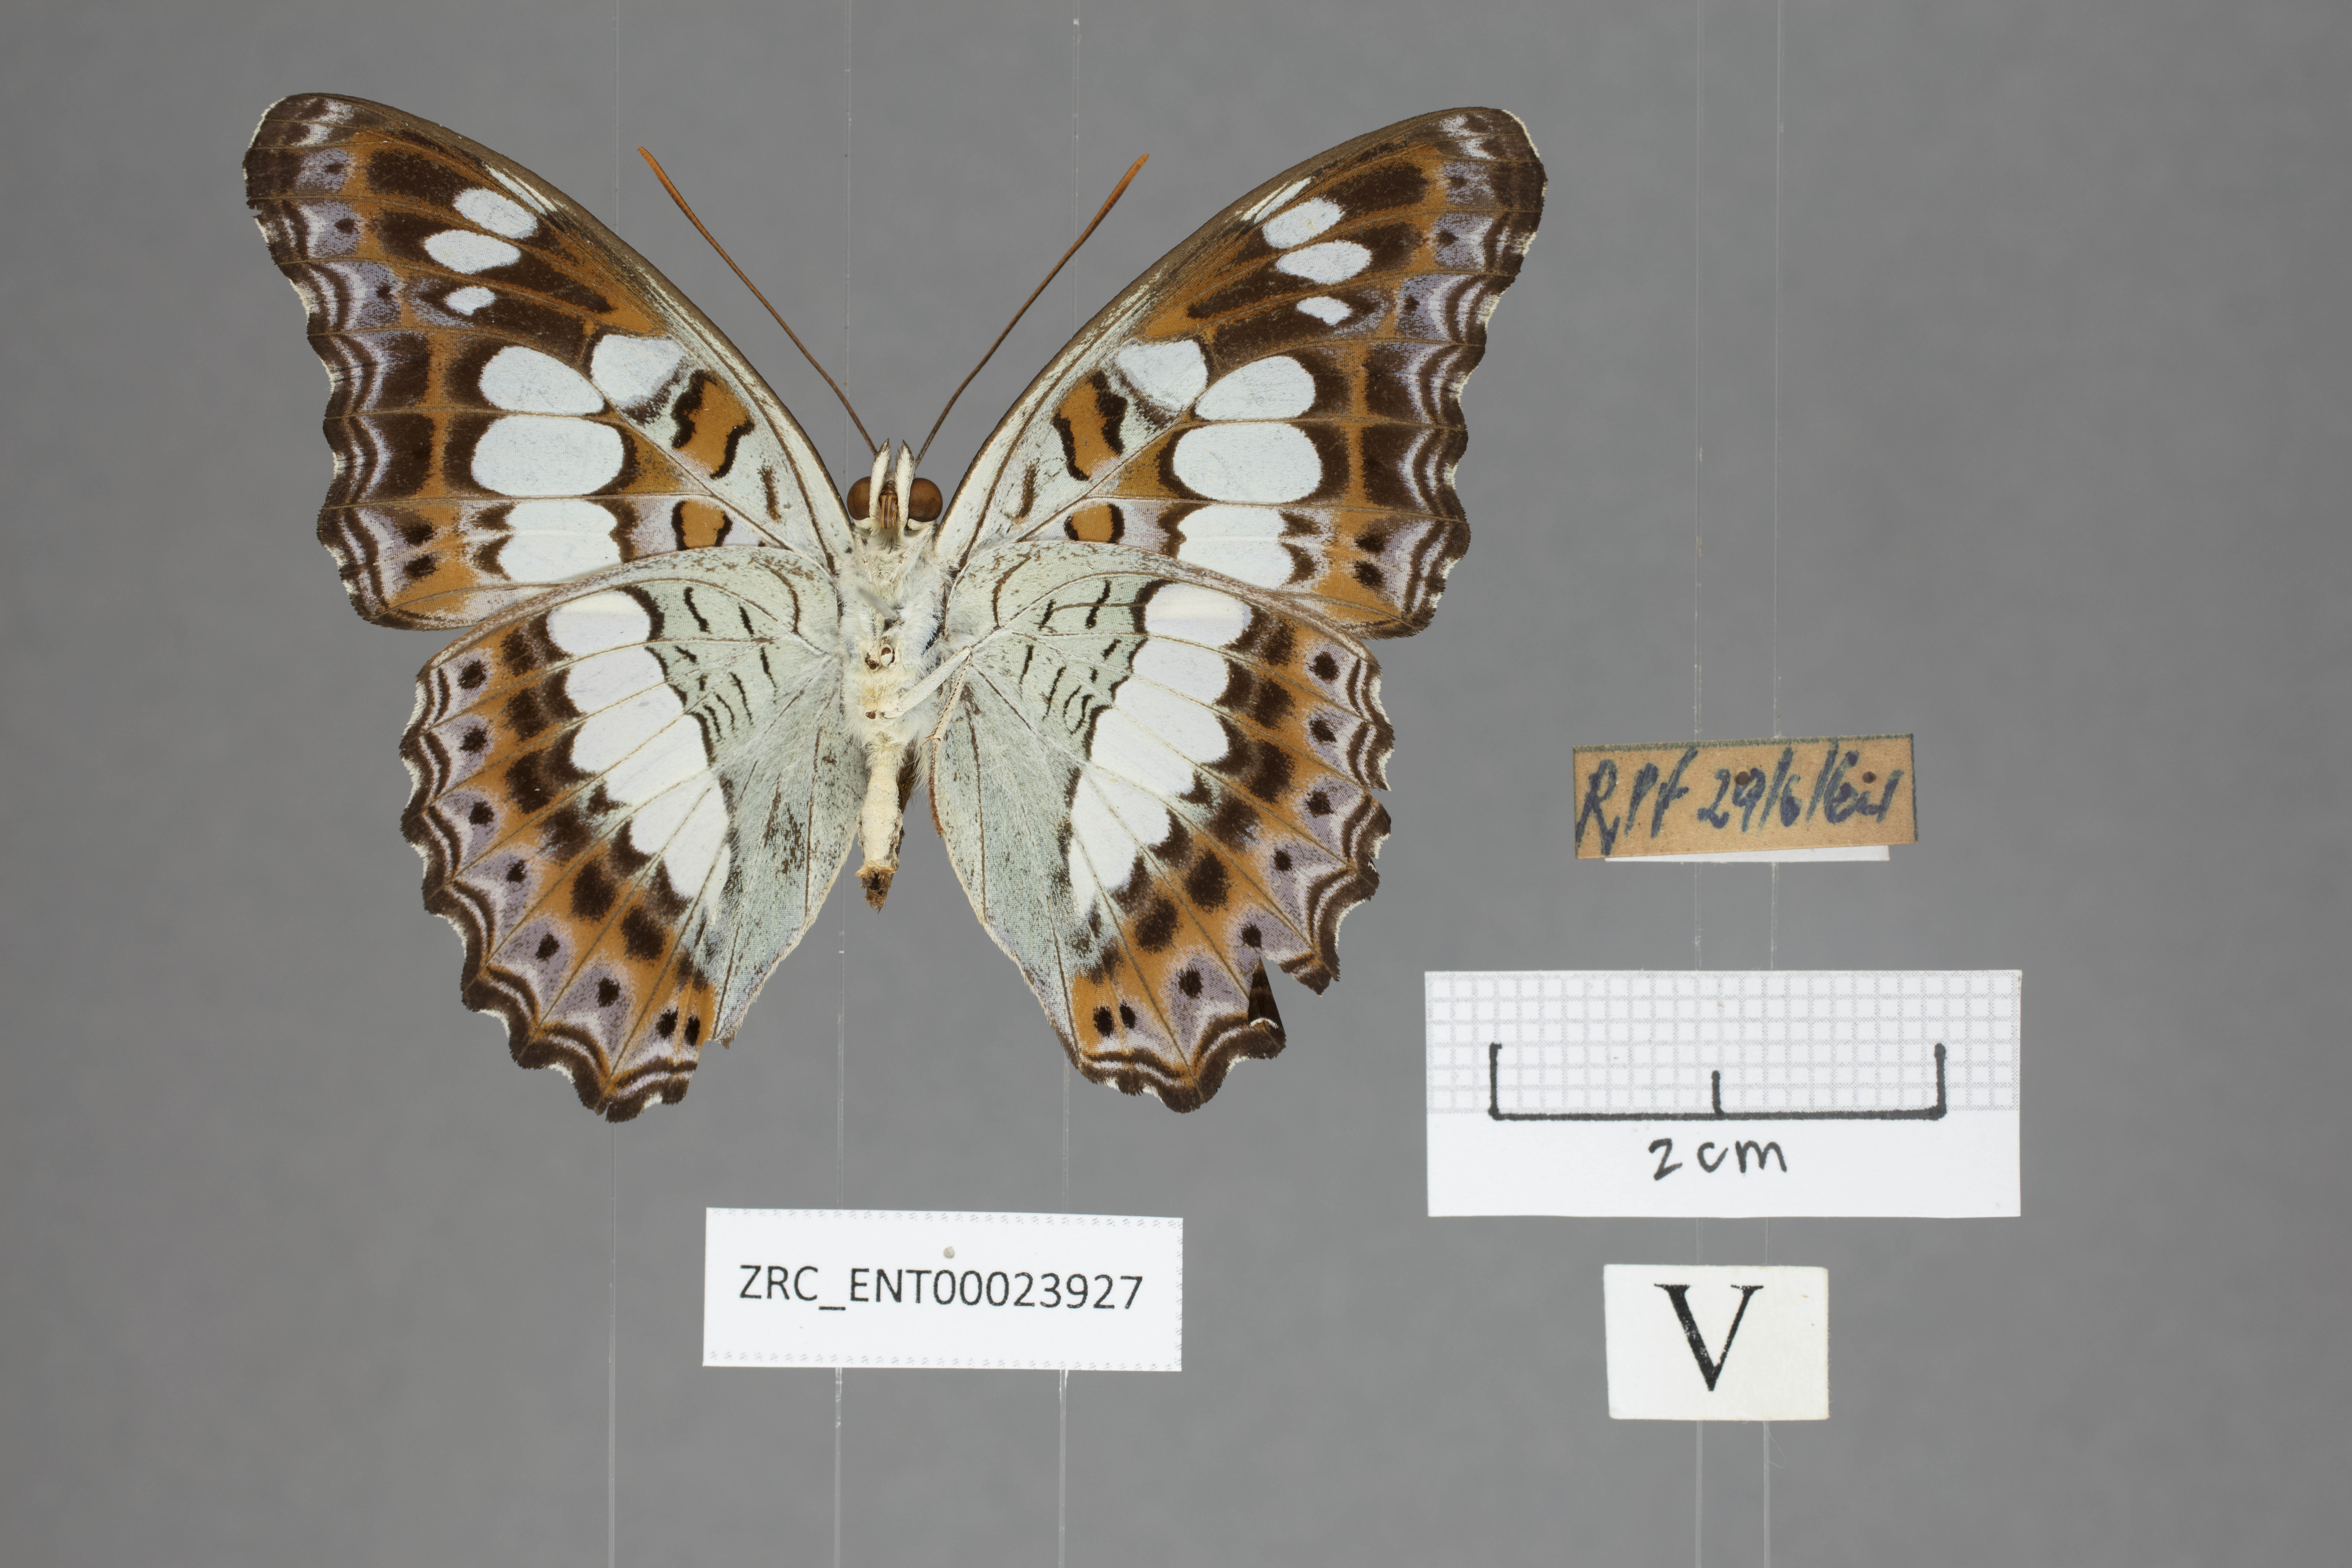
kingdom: Animalia
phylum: Arthropoda
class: Insecta
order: Lepidoptera
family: Nymphalidae
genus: Limenitis
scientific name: Limenitis Moduza procris
